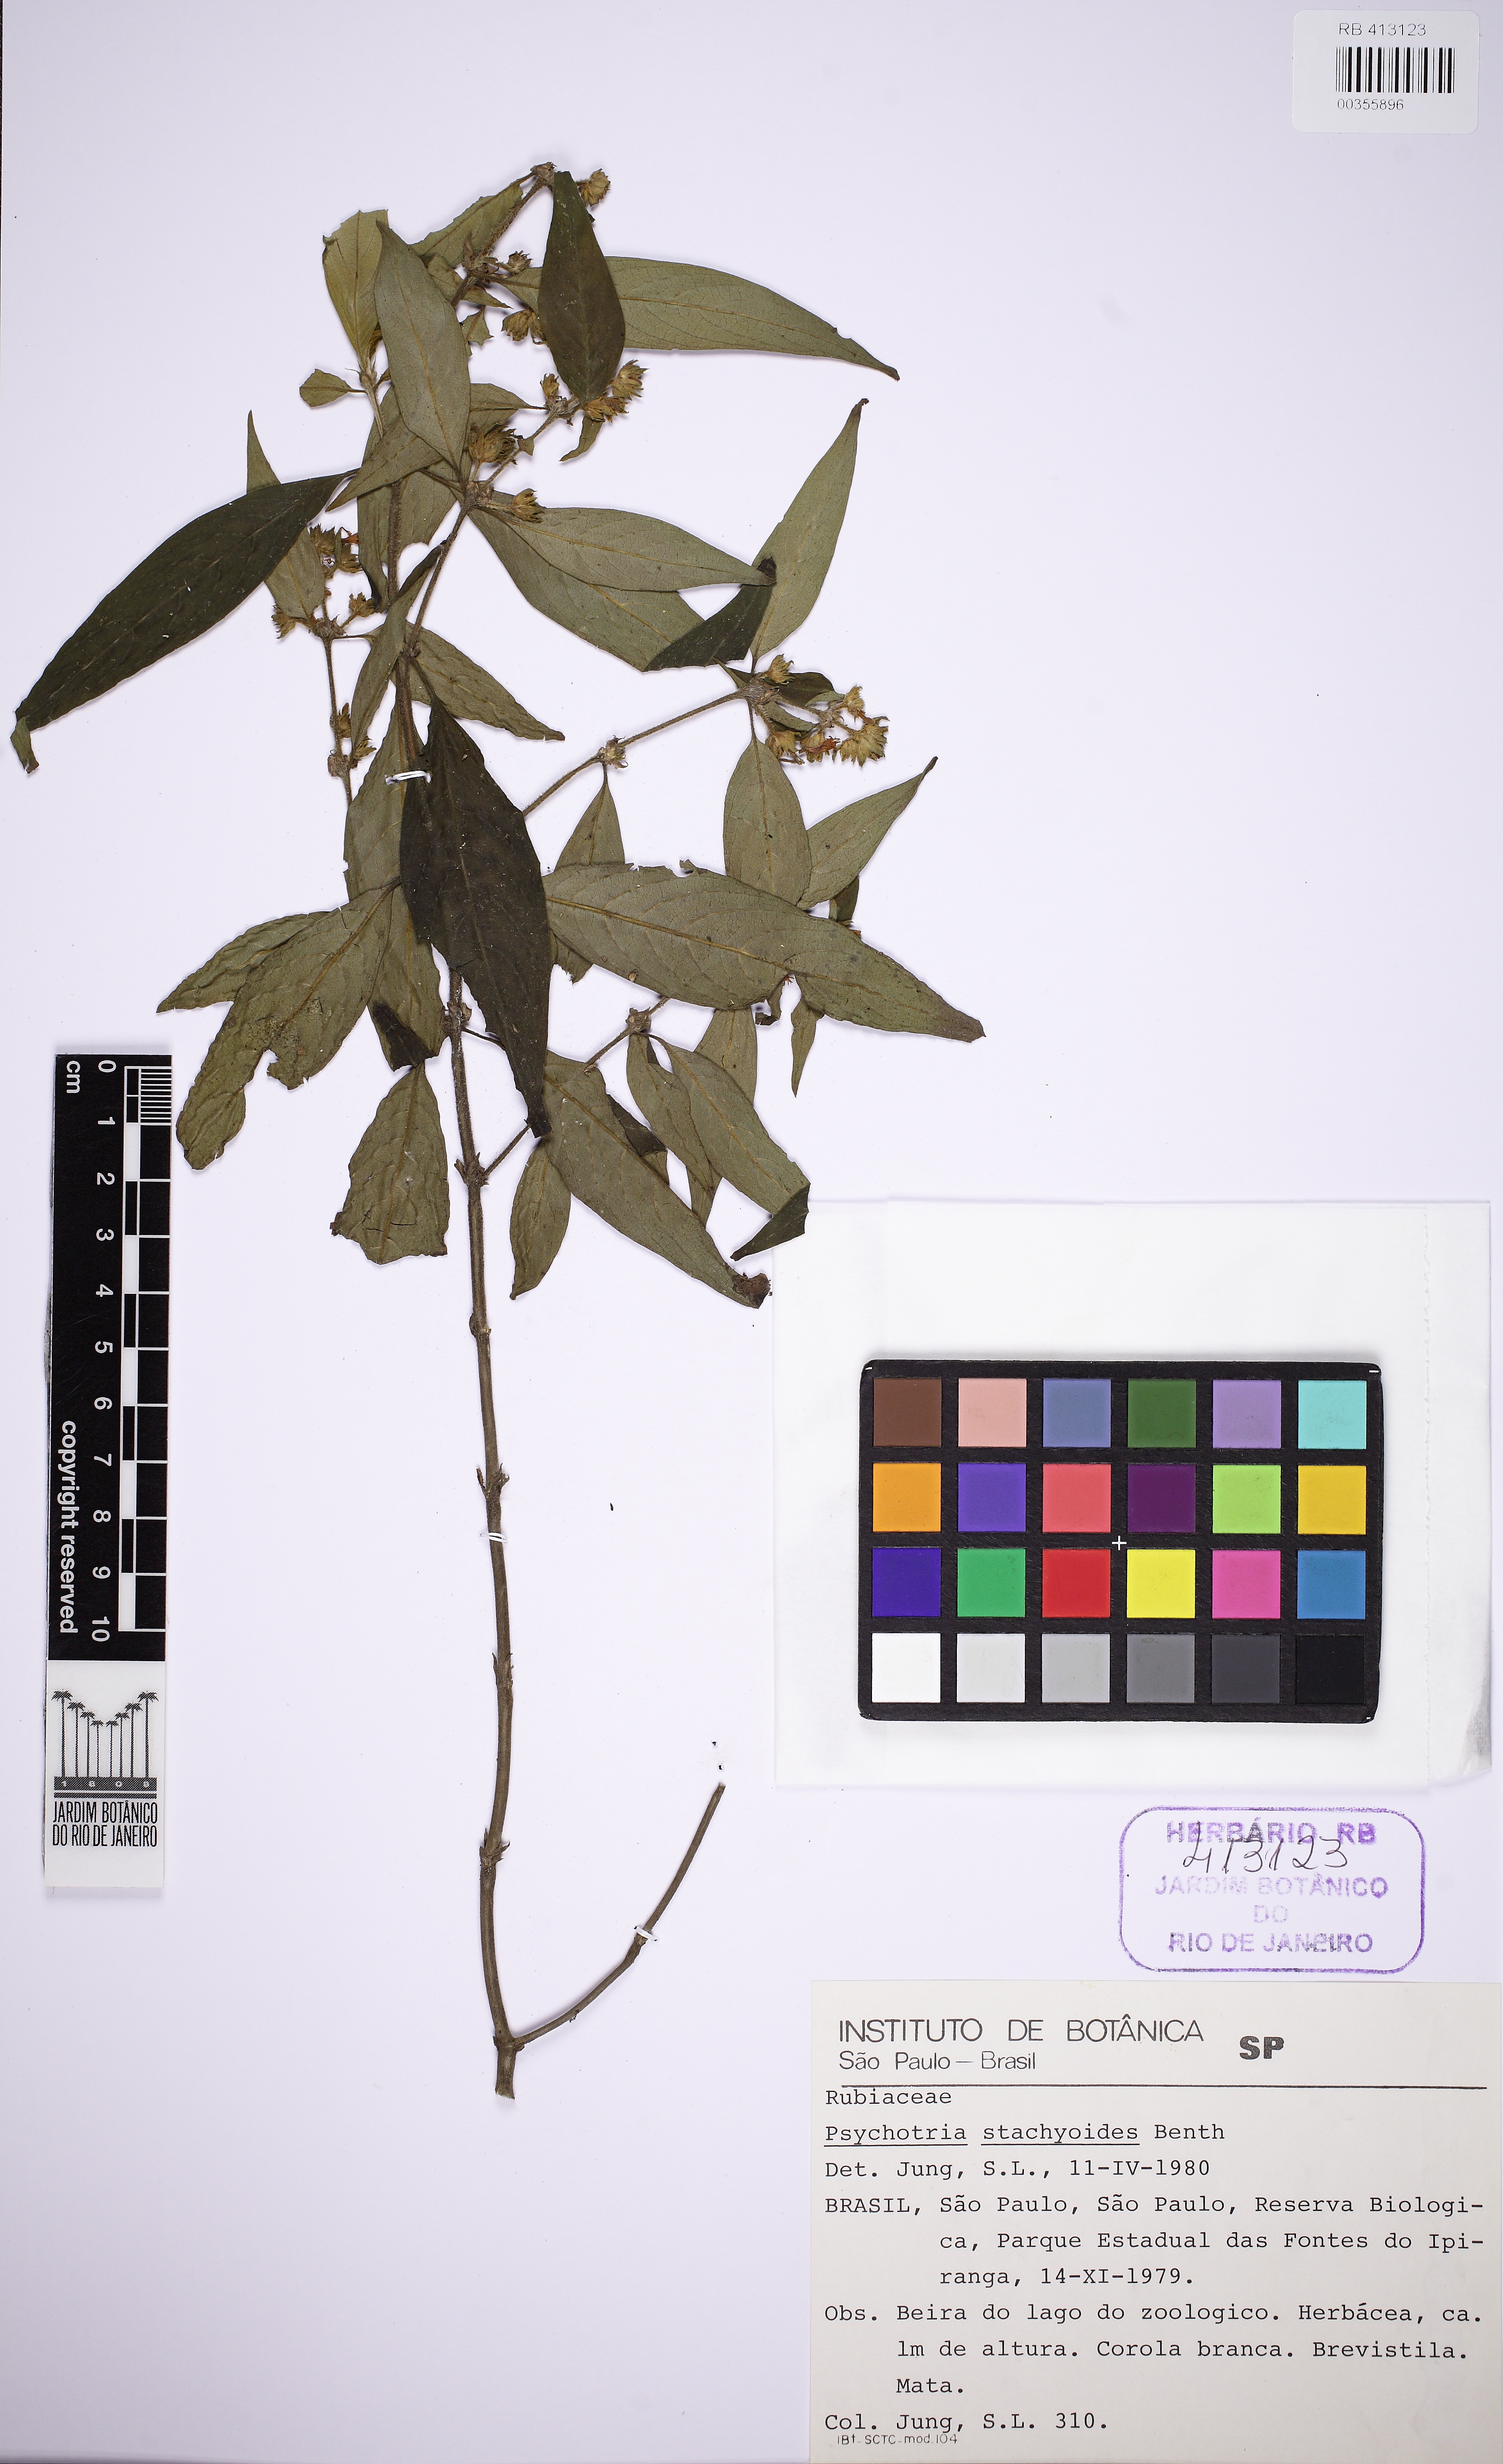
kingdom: Plantae
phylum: Tracheophyta
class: Magnoliopsida
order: Gentianales
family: Rubiaceae
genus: Psychotria
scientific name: Psychotria stachyoides
